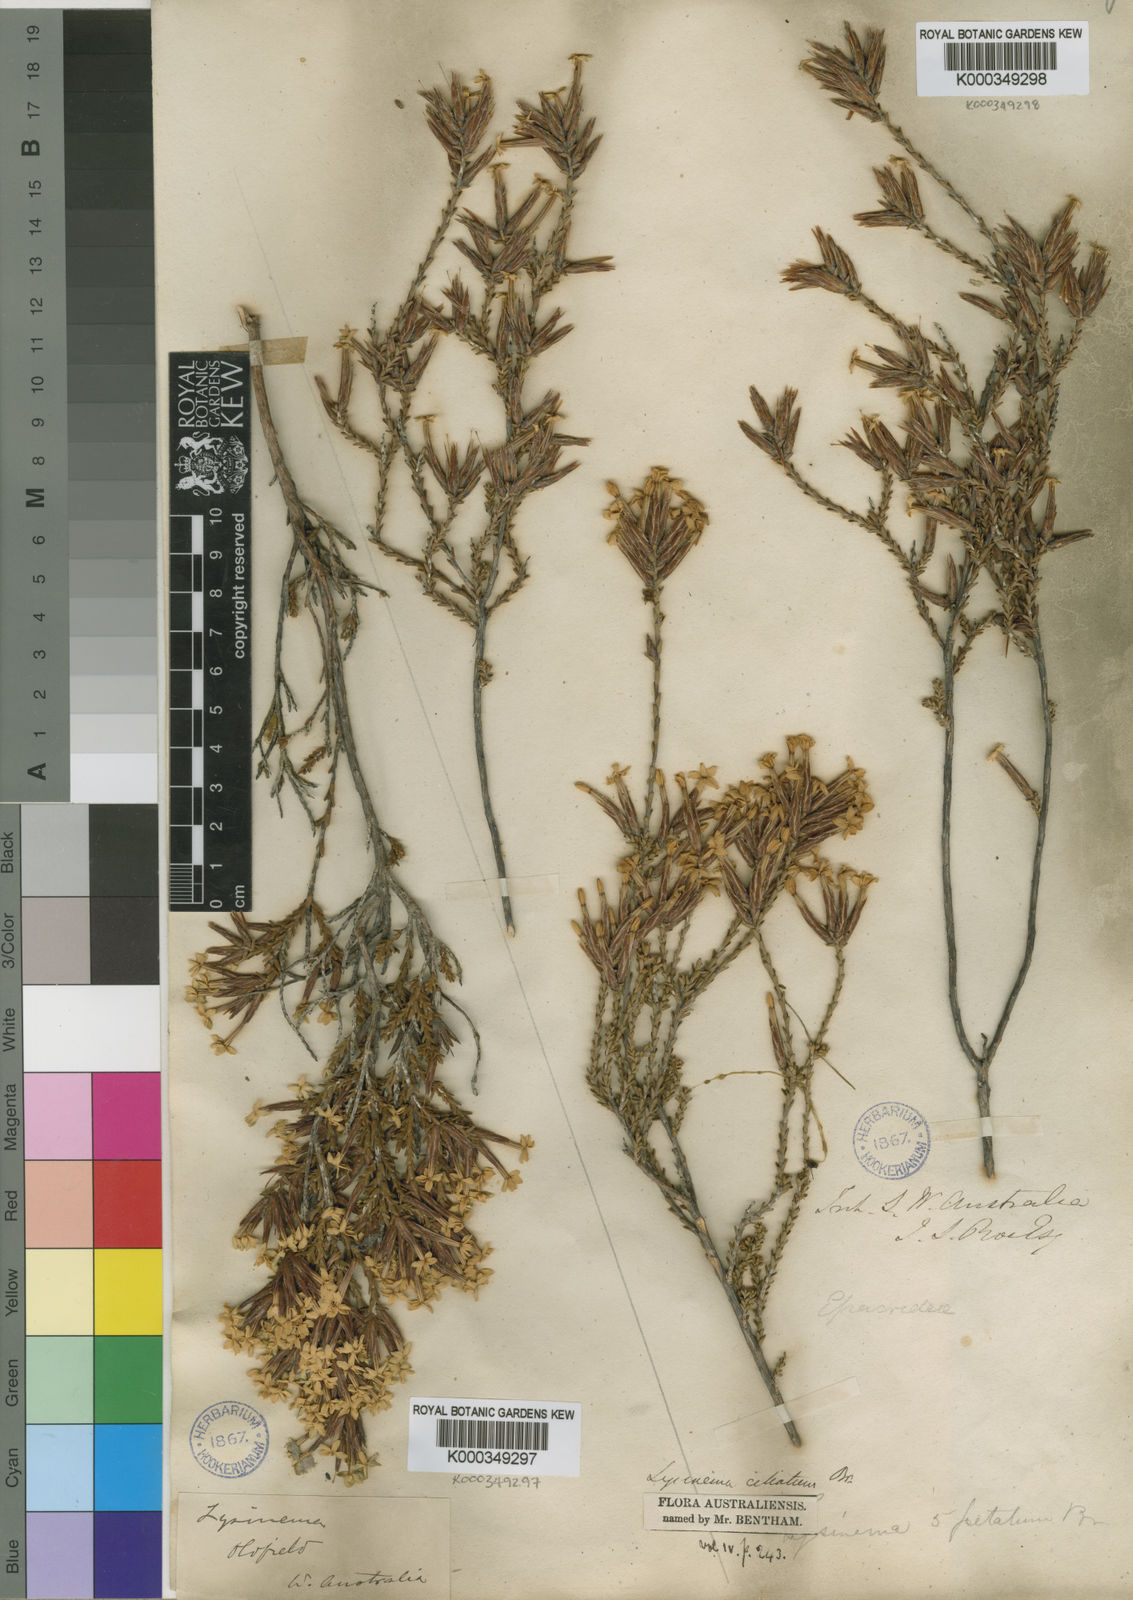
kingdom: Plantae
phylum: Tracheophyta
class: Magnoliopsida
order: Ericales
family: Ericaceae
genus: Lysinema
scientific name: Lysinema ciliatum
